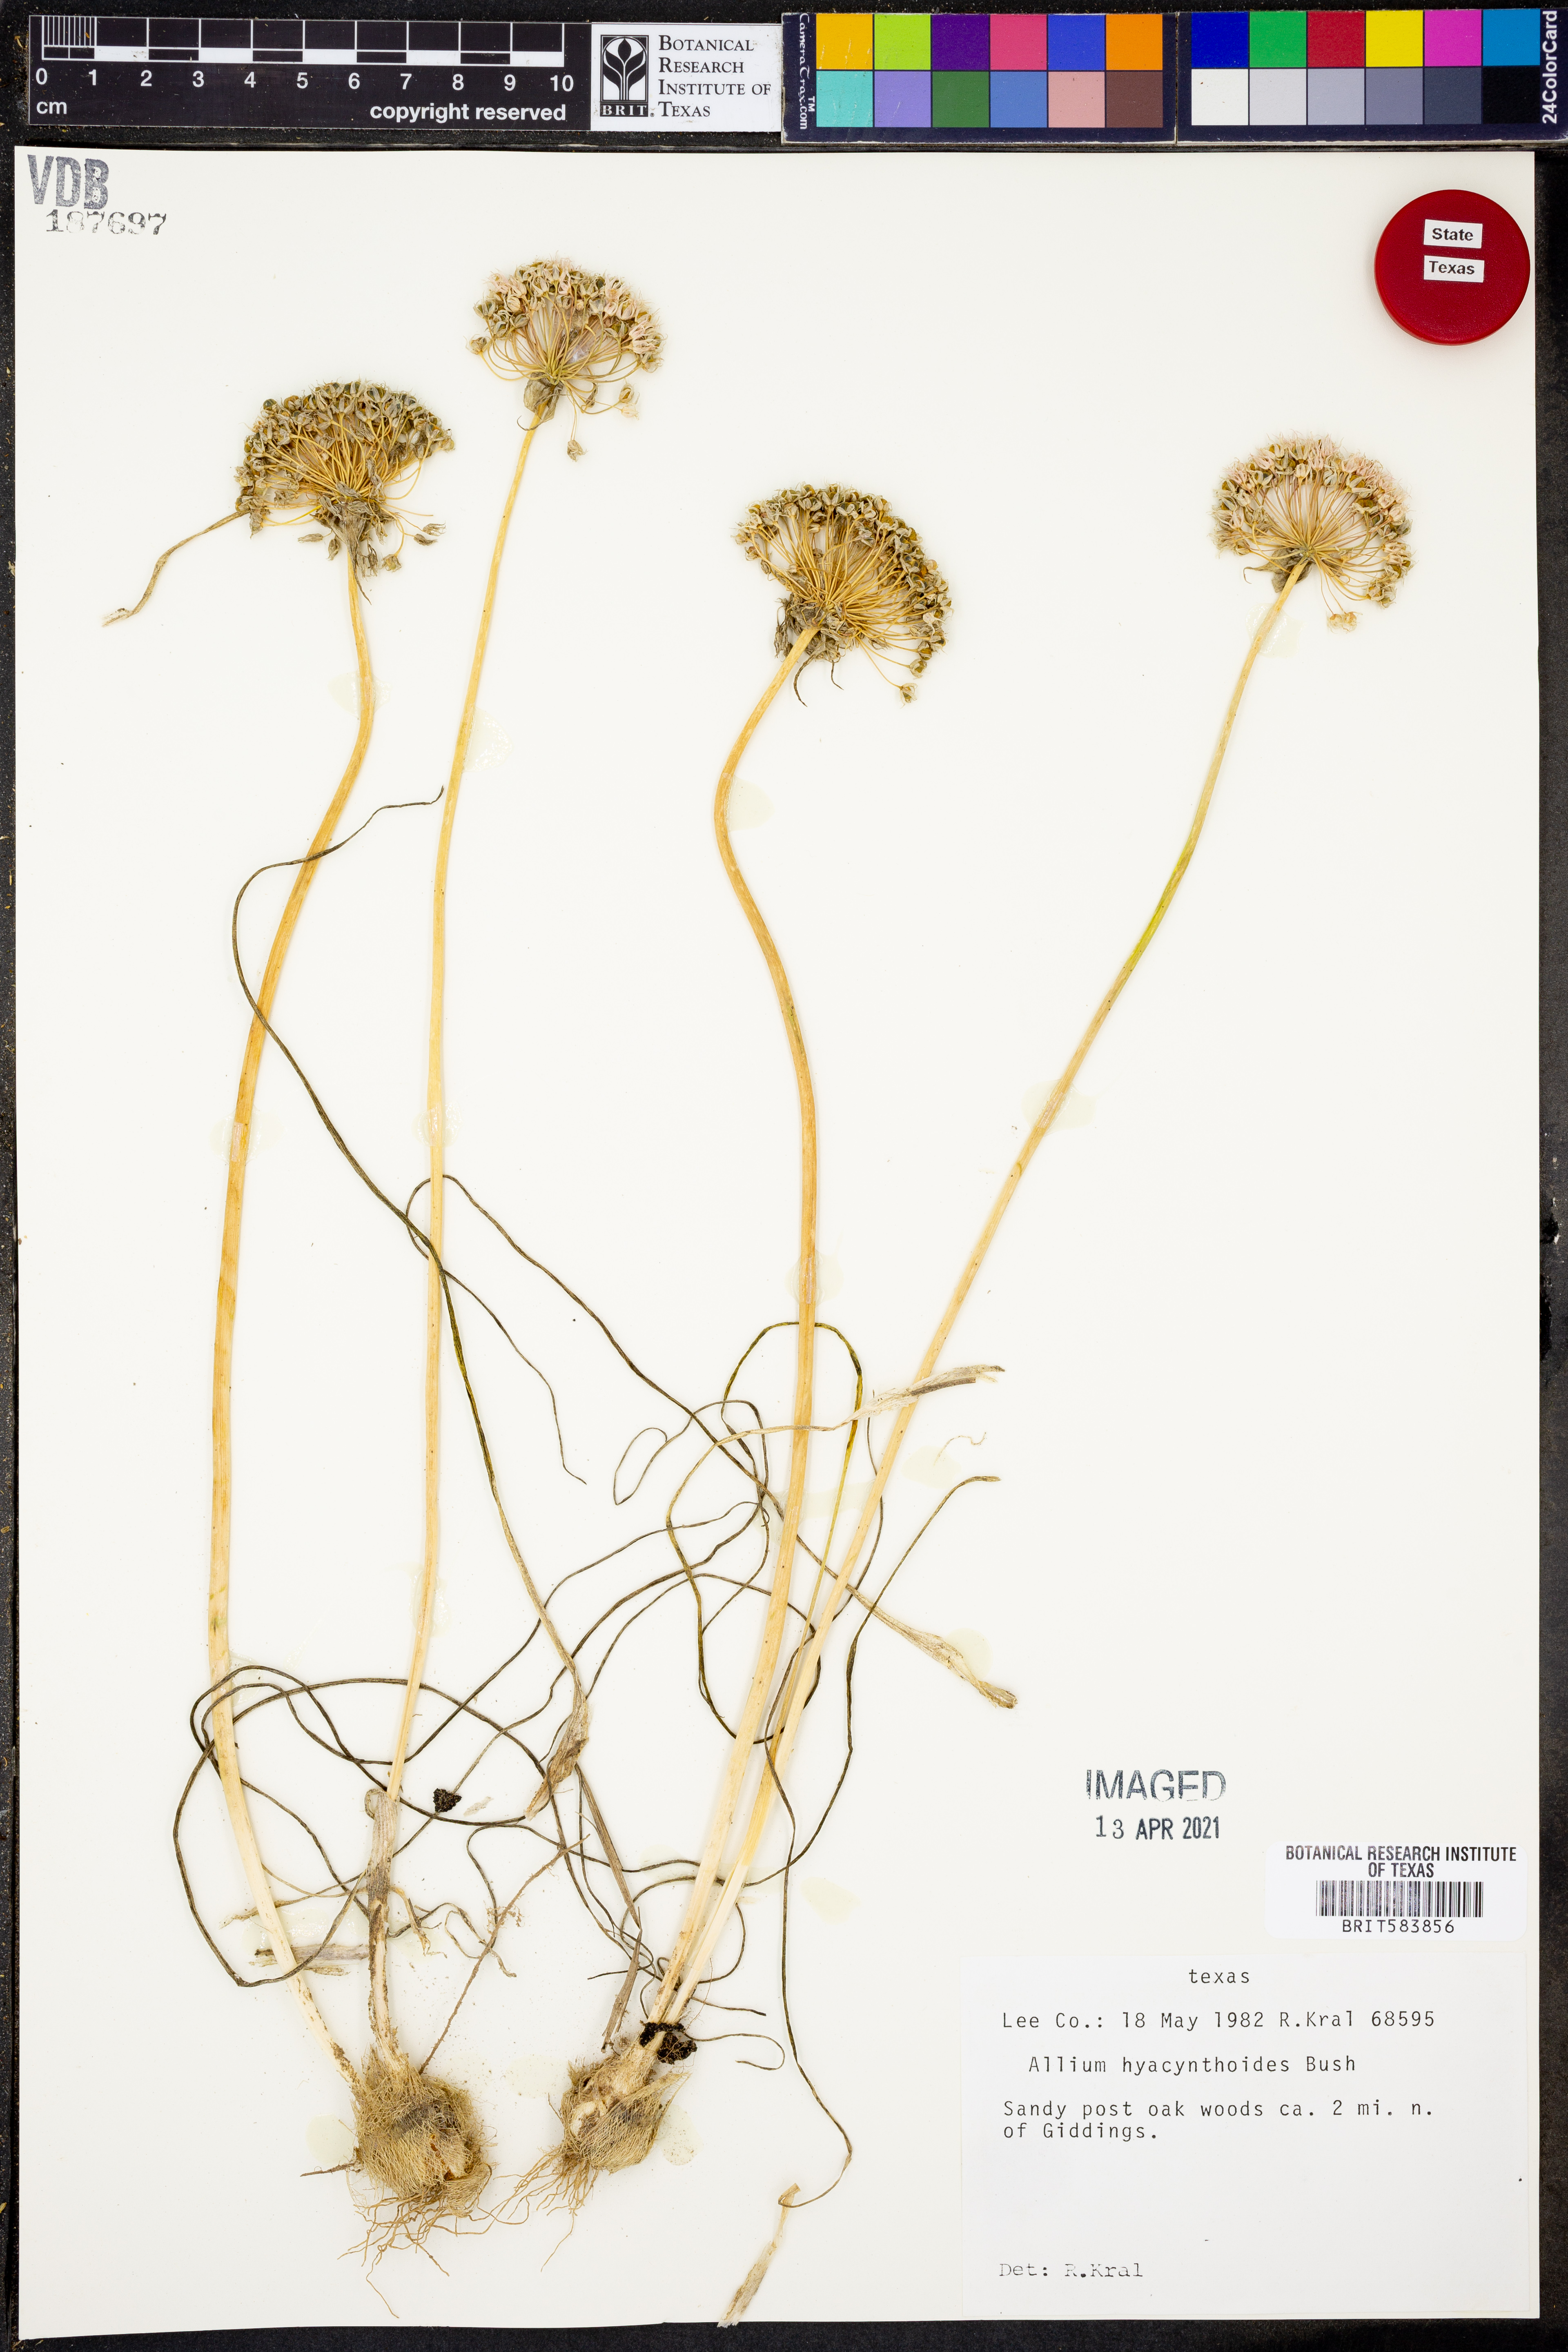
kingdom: Plantae
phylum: Tracheophyta
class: Liliopsida
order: Asparagales
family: Amaryllidaceae
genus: Allium
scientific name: Allium canadense
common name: Meadow garlic
